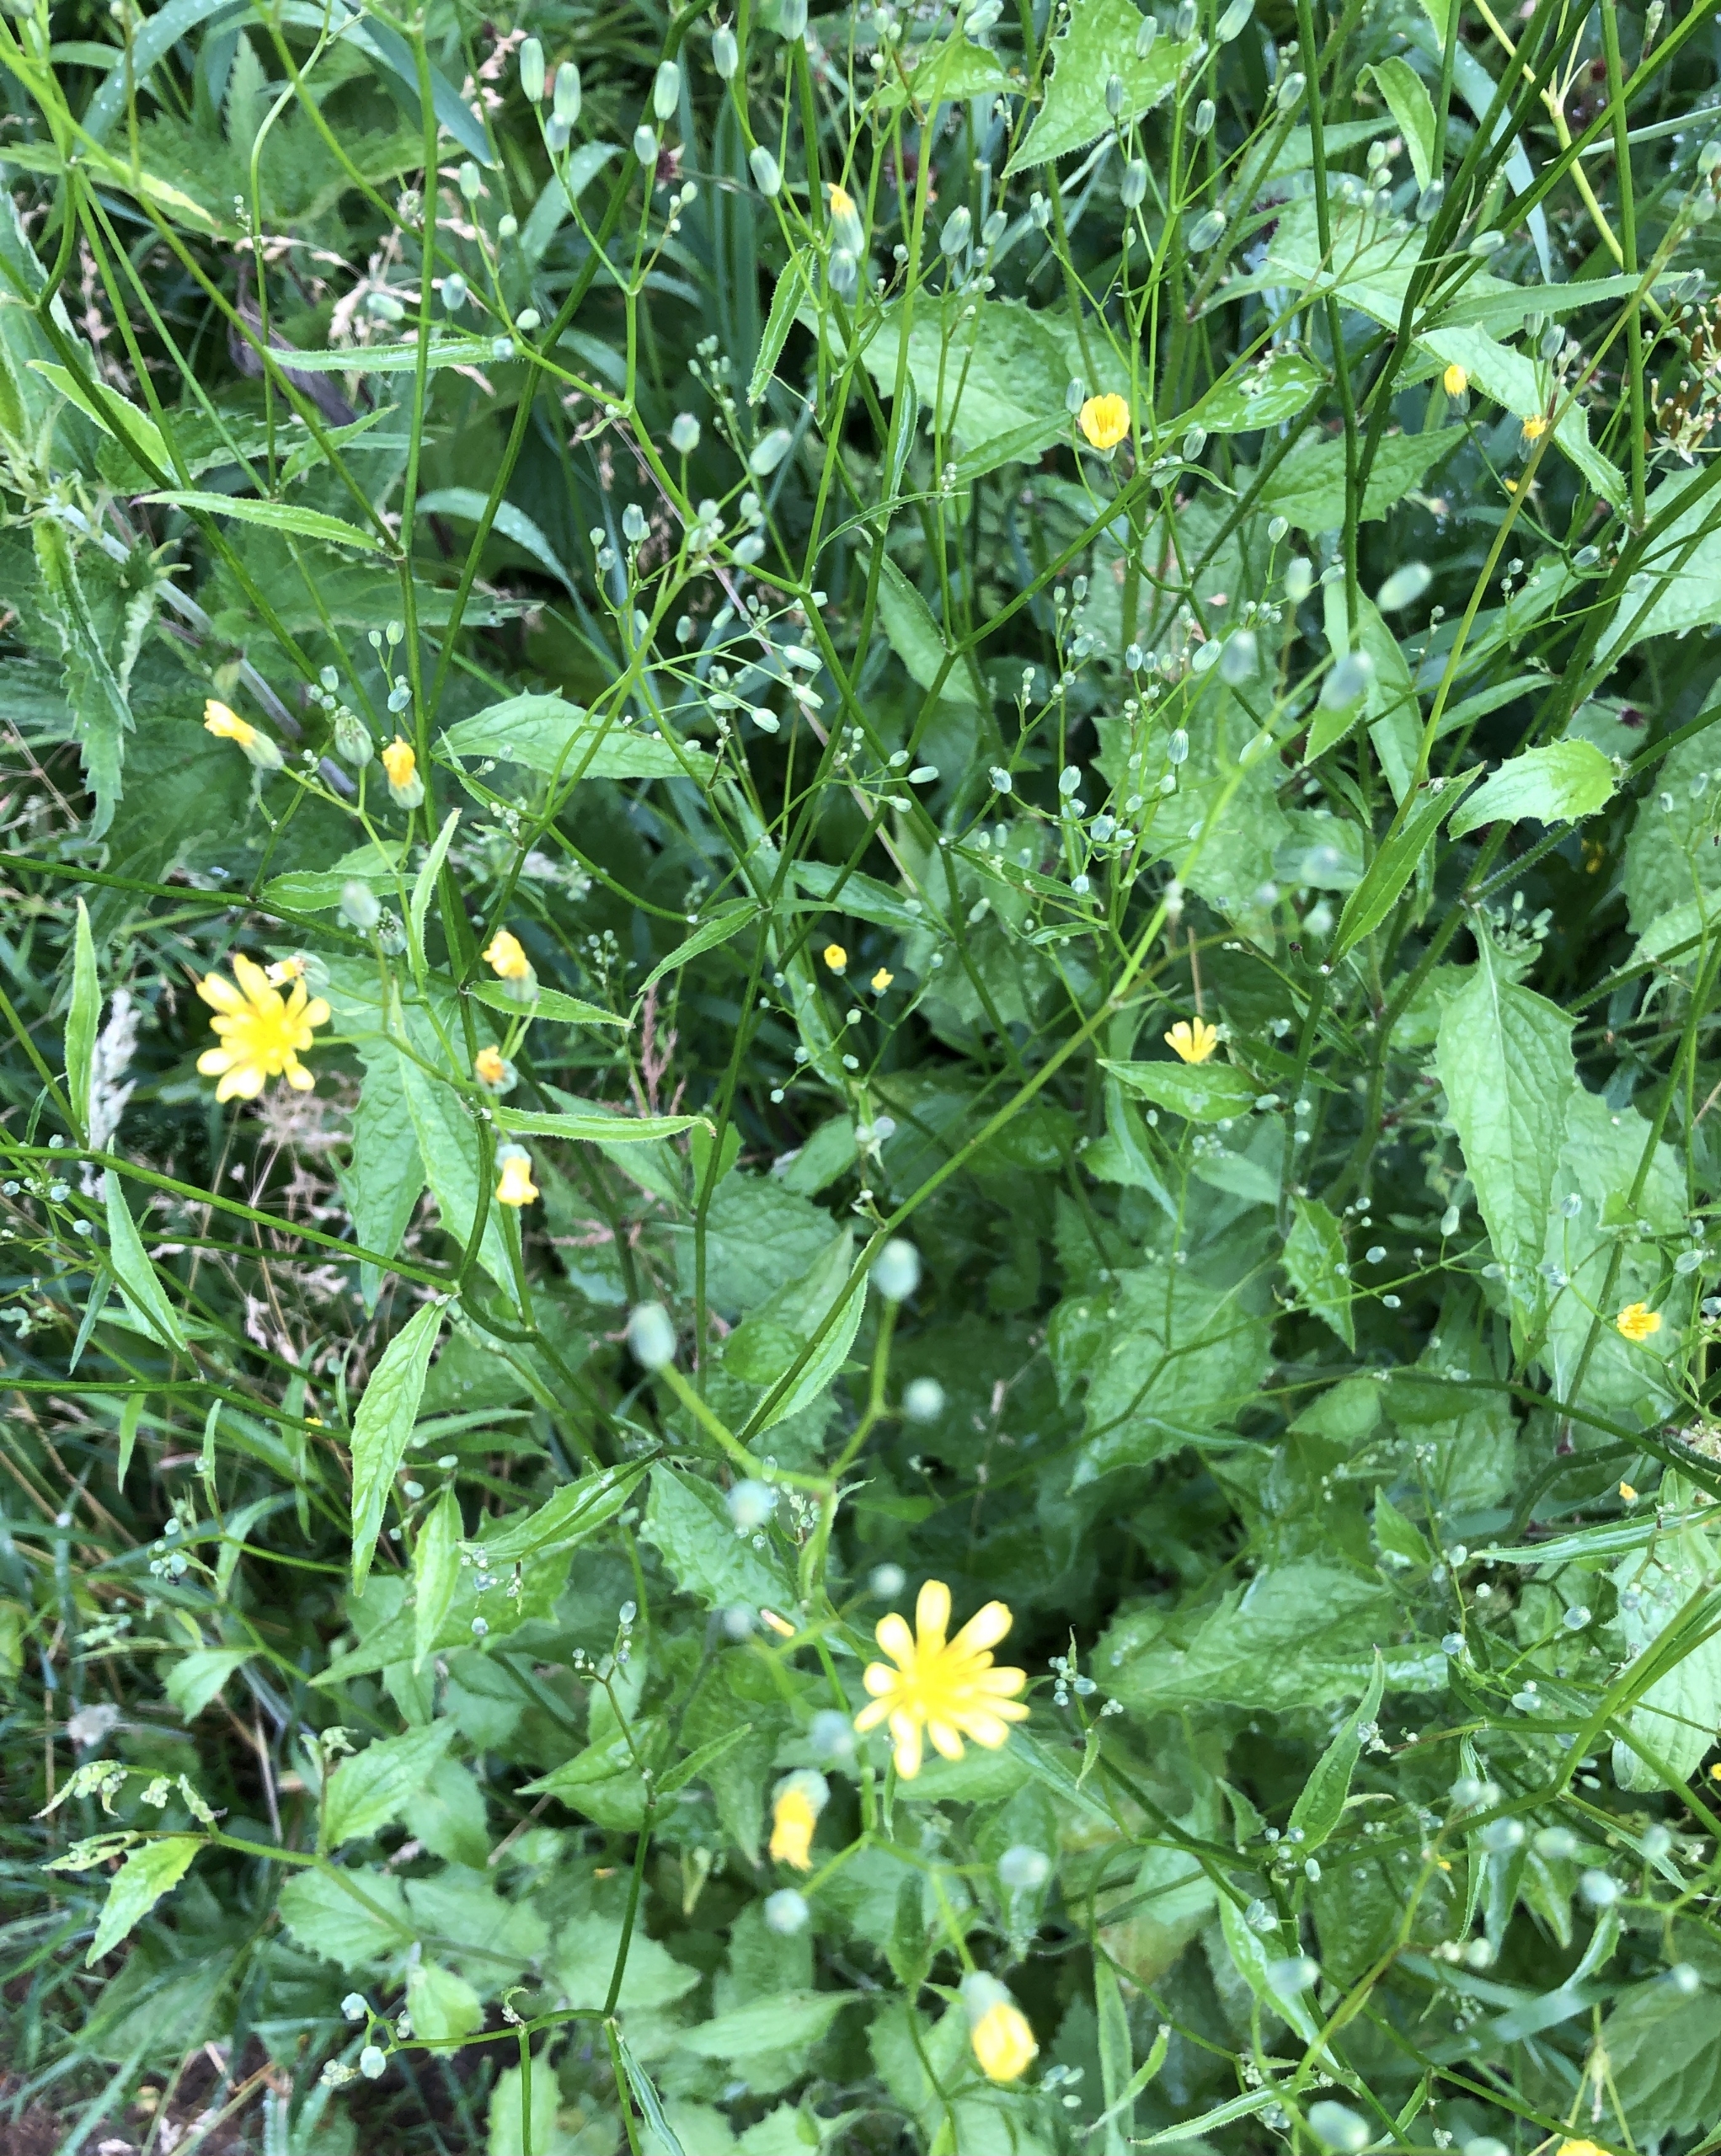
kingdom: Plantae
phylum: Tracheophyta
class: Magnoliopsida
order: Asterales
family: Asteraceae
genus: Lapsana
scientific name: Lapsana communis
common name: Haremad
